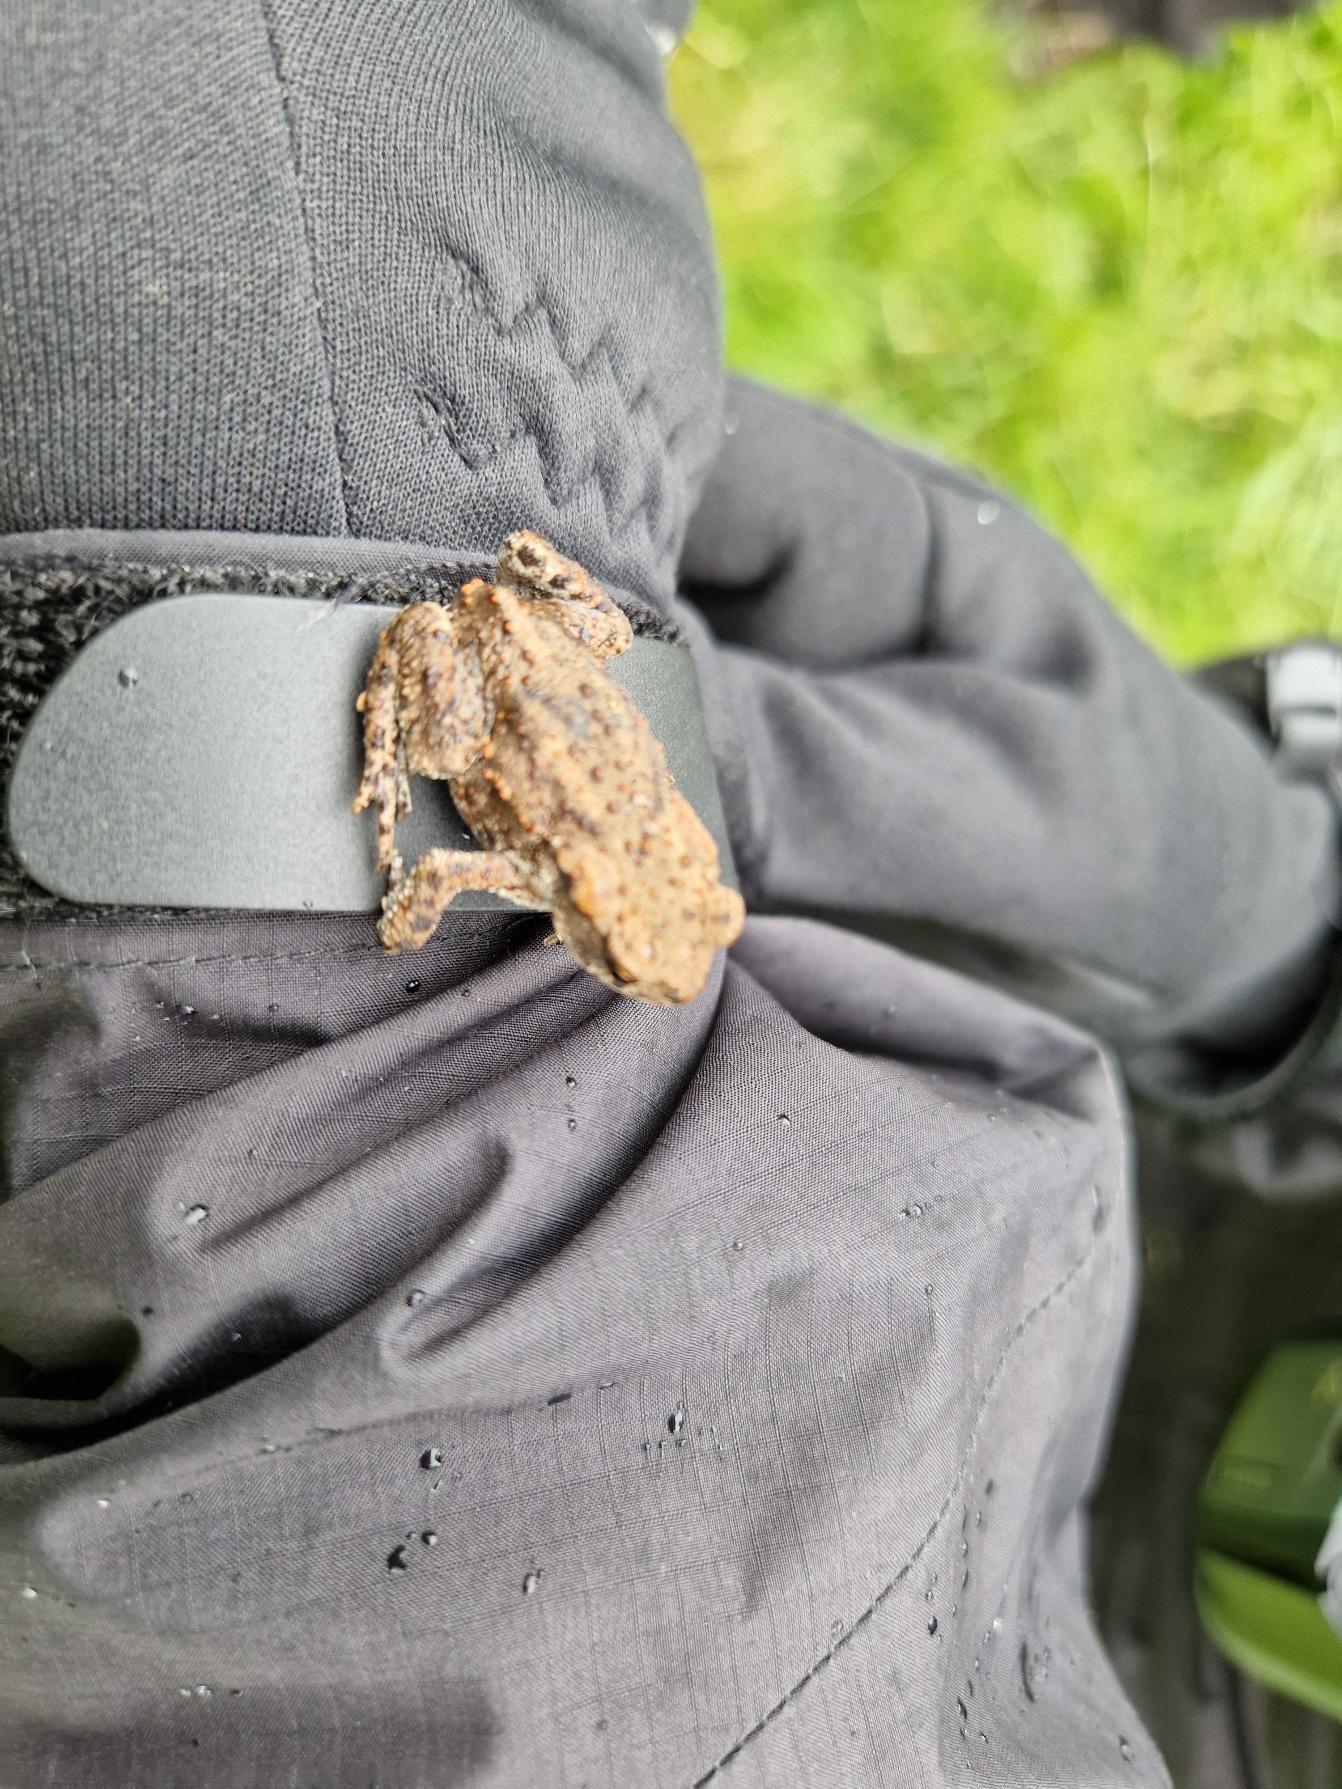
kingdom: Animalia
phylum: Chordata
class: Amphibia
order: Anura
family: Bufonidae
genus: Bufo
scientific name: Bufo bufo
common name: Skrubtudse
